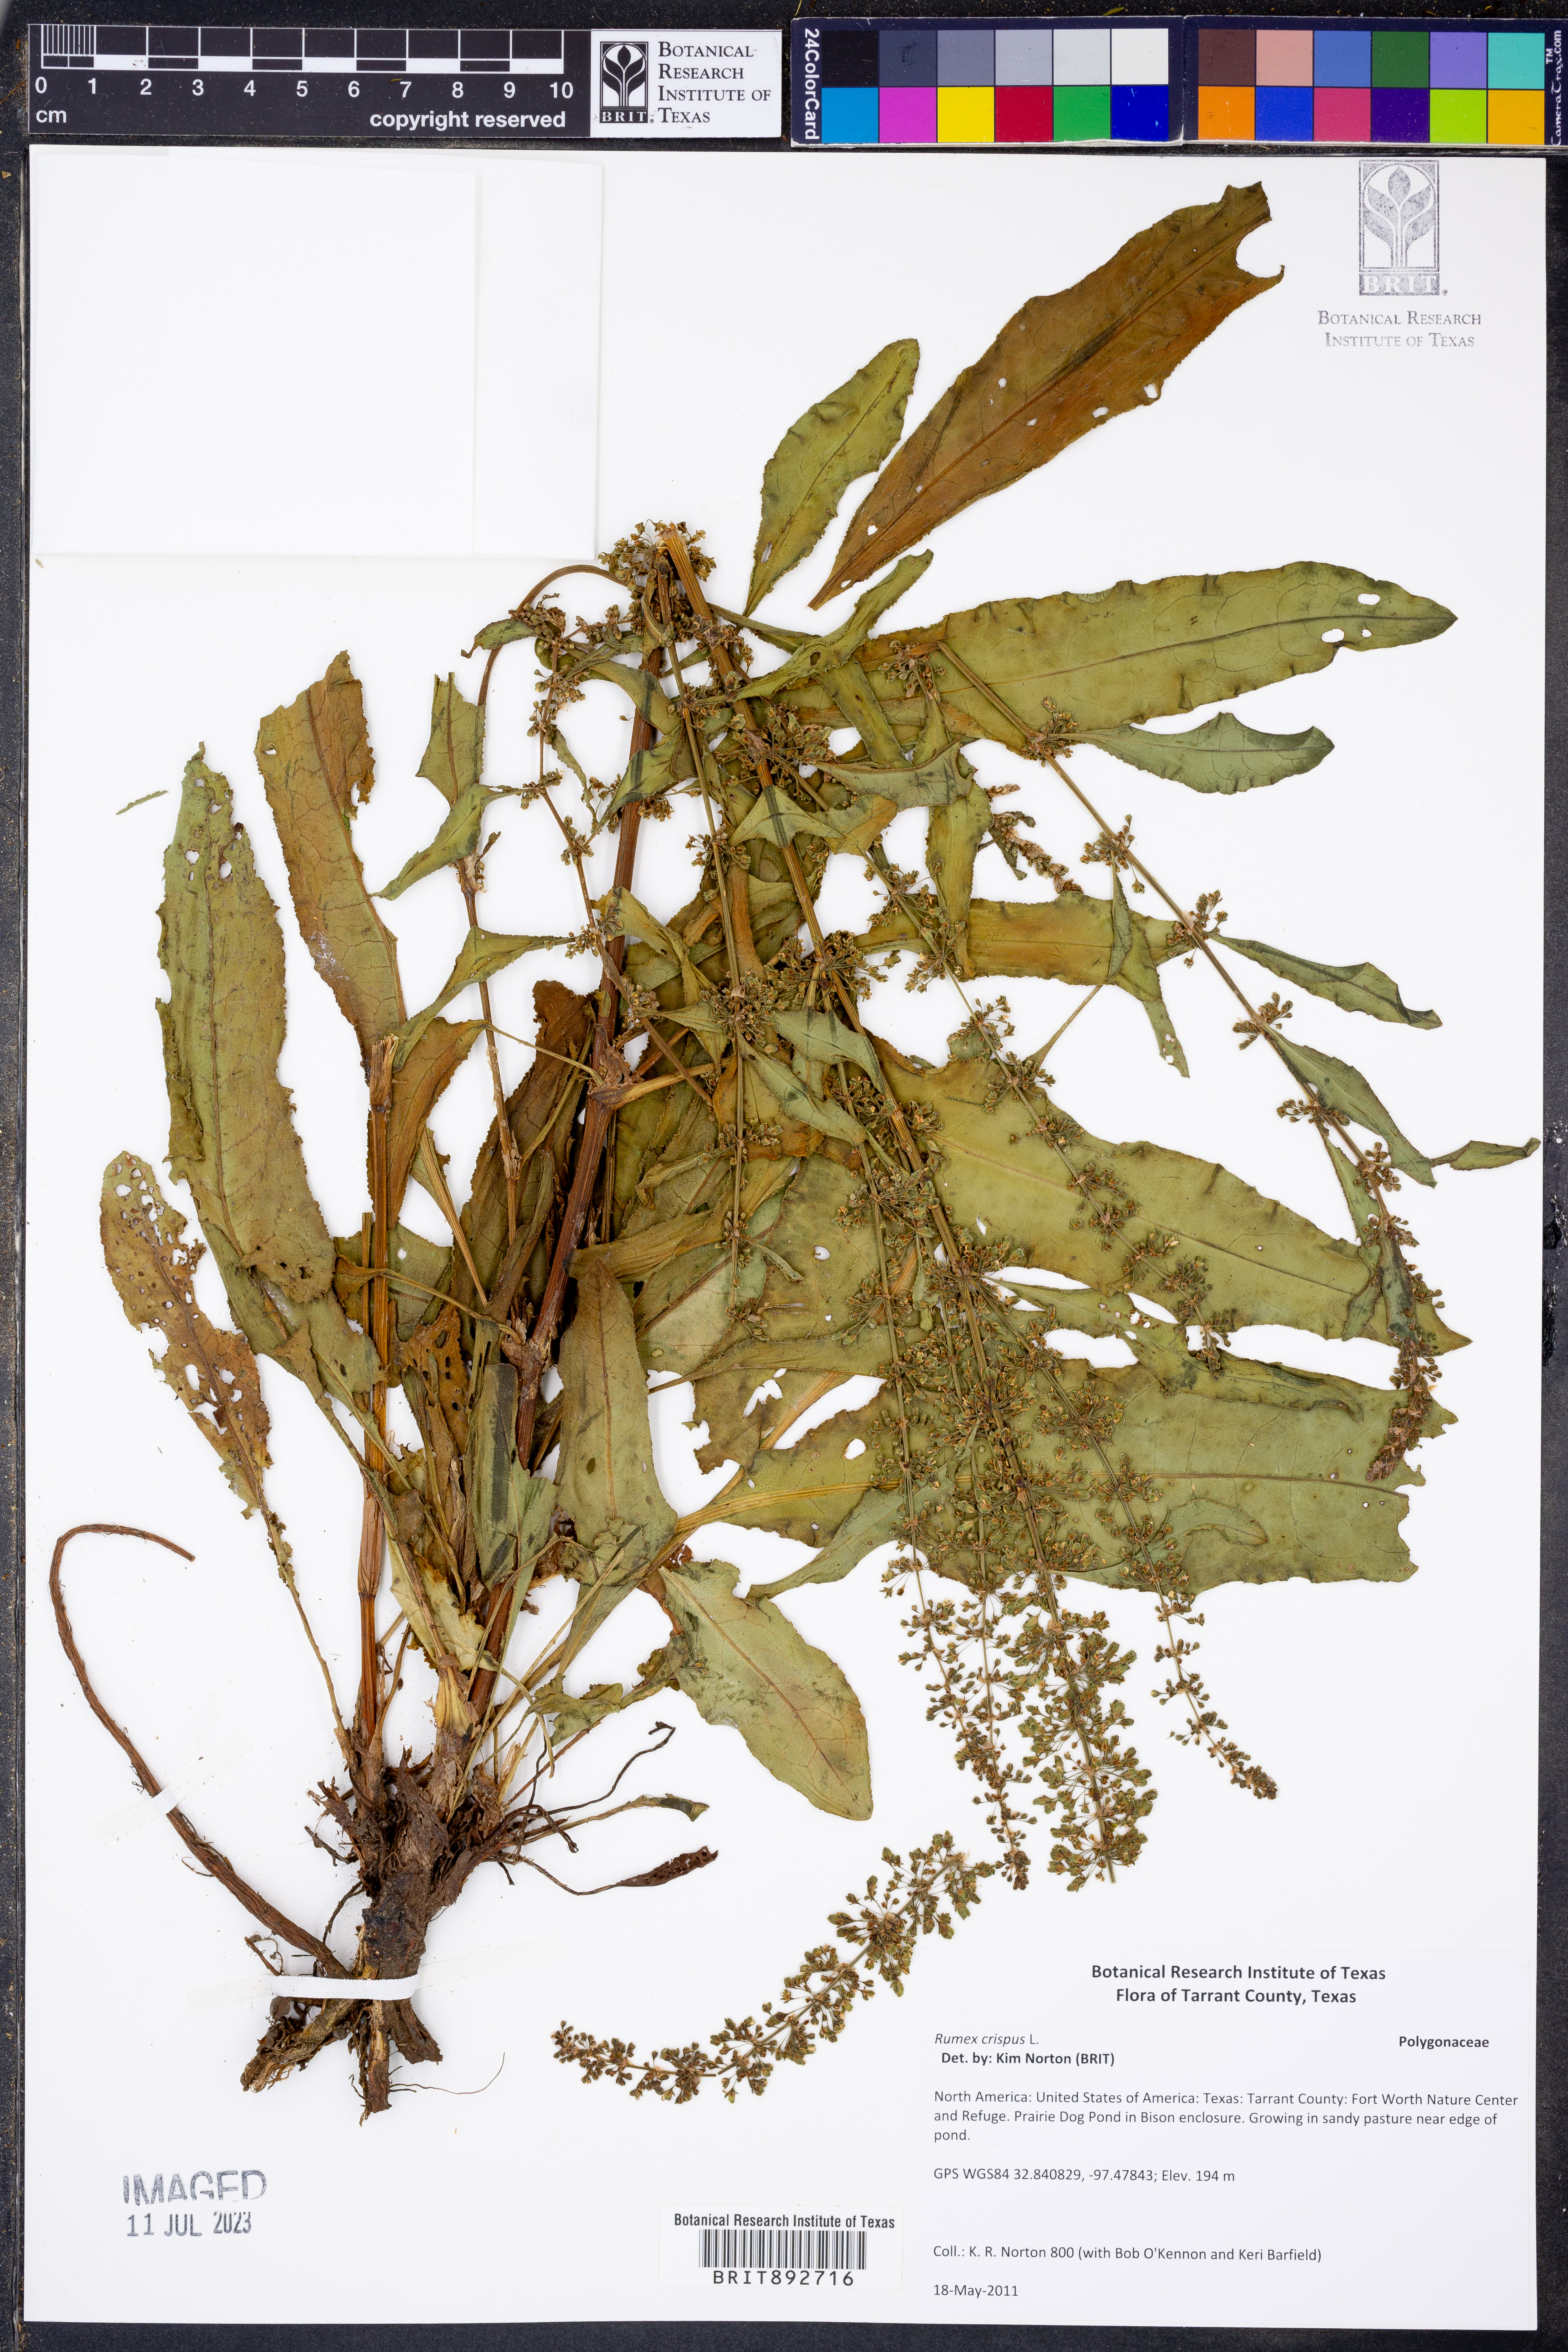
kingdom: Plantae
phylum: Tracheophyta
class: Magnoliopsida
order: Caryophyllales
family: Polygonaceae
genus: Rumex
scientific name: Rumex crispus
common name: Curled dock
